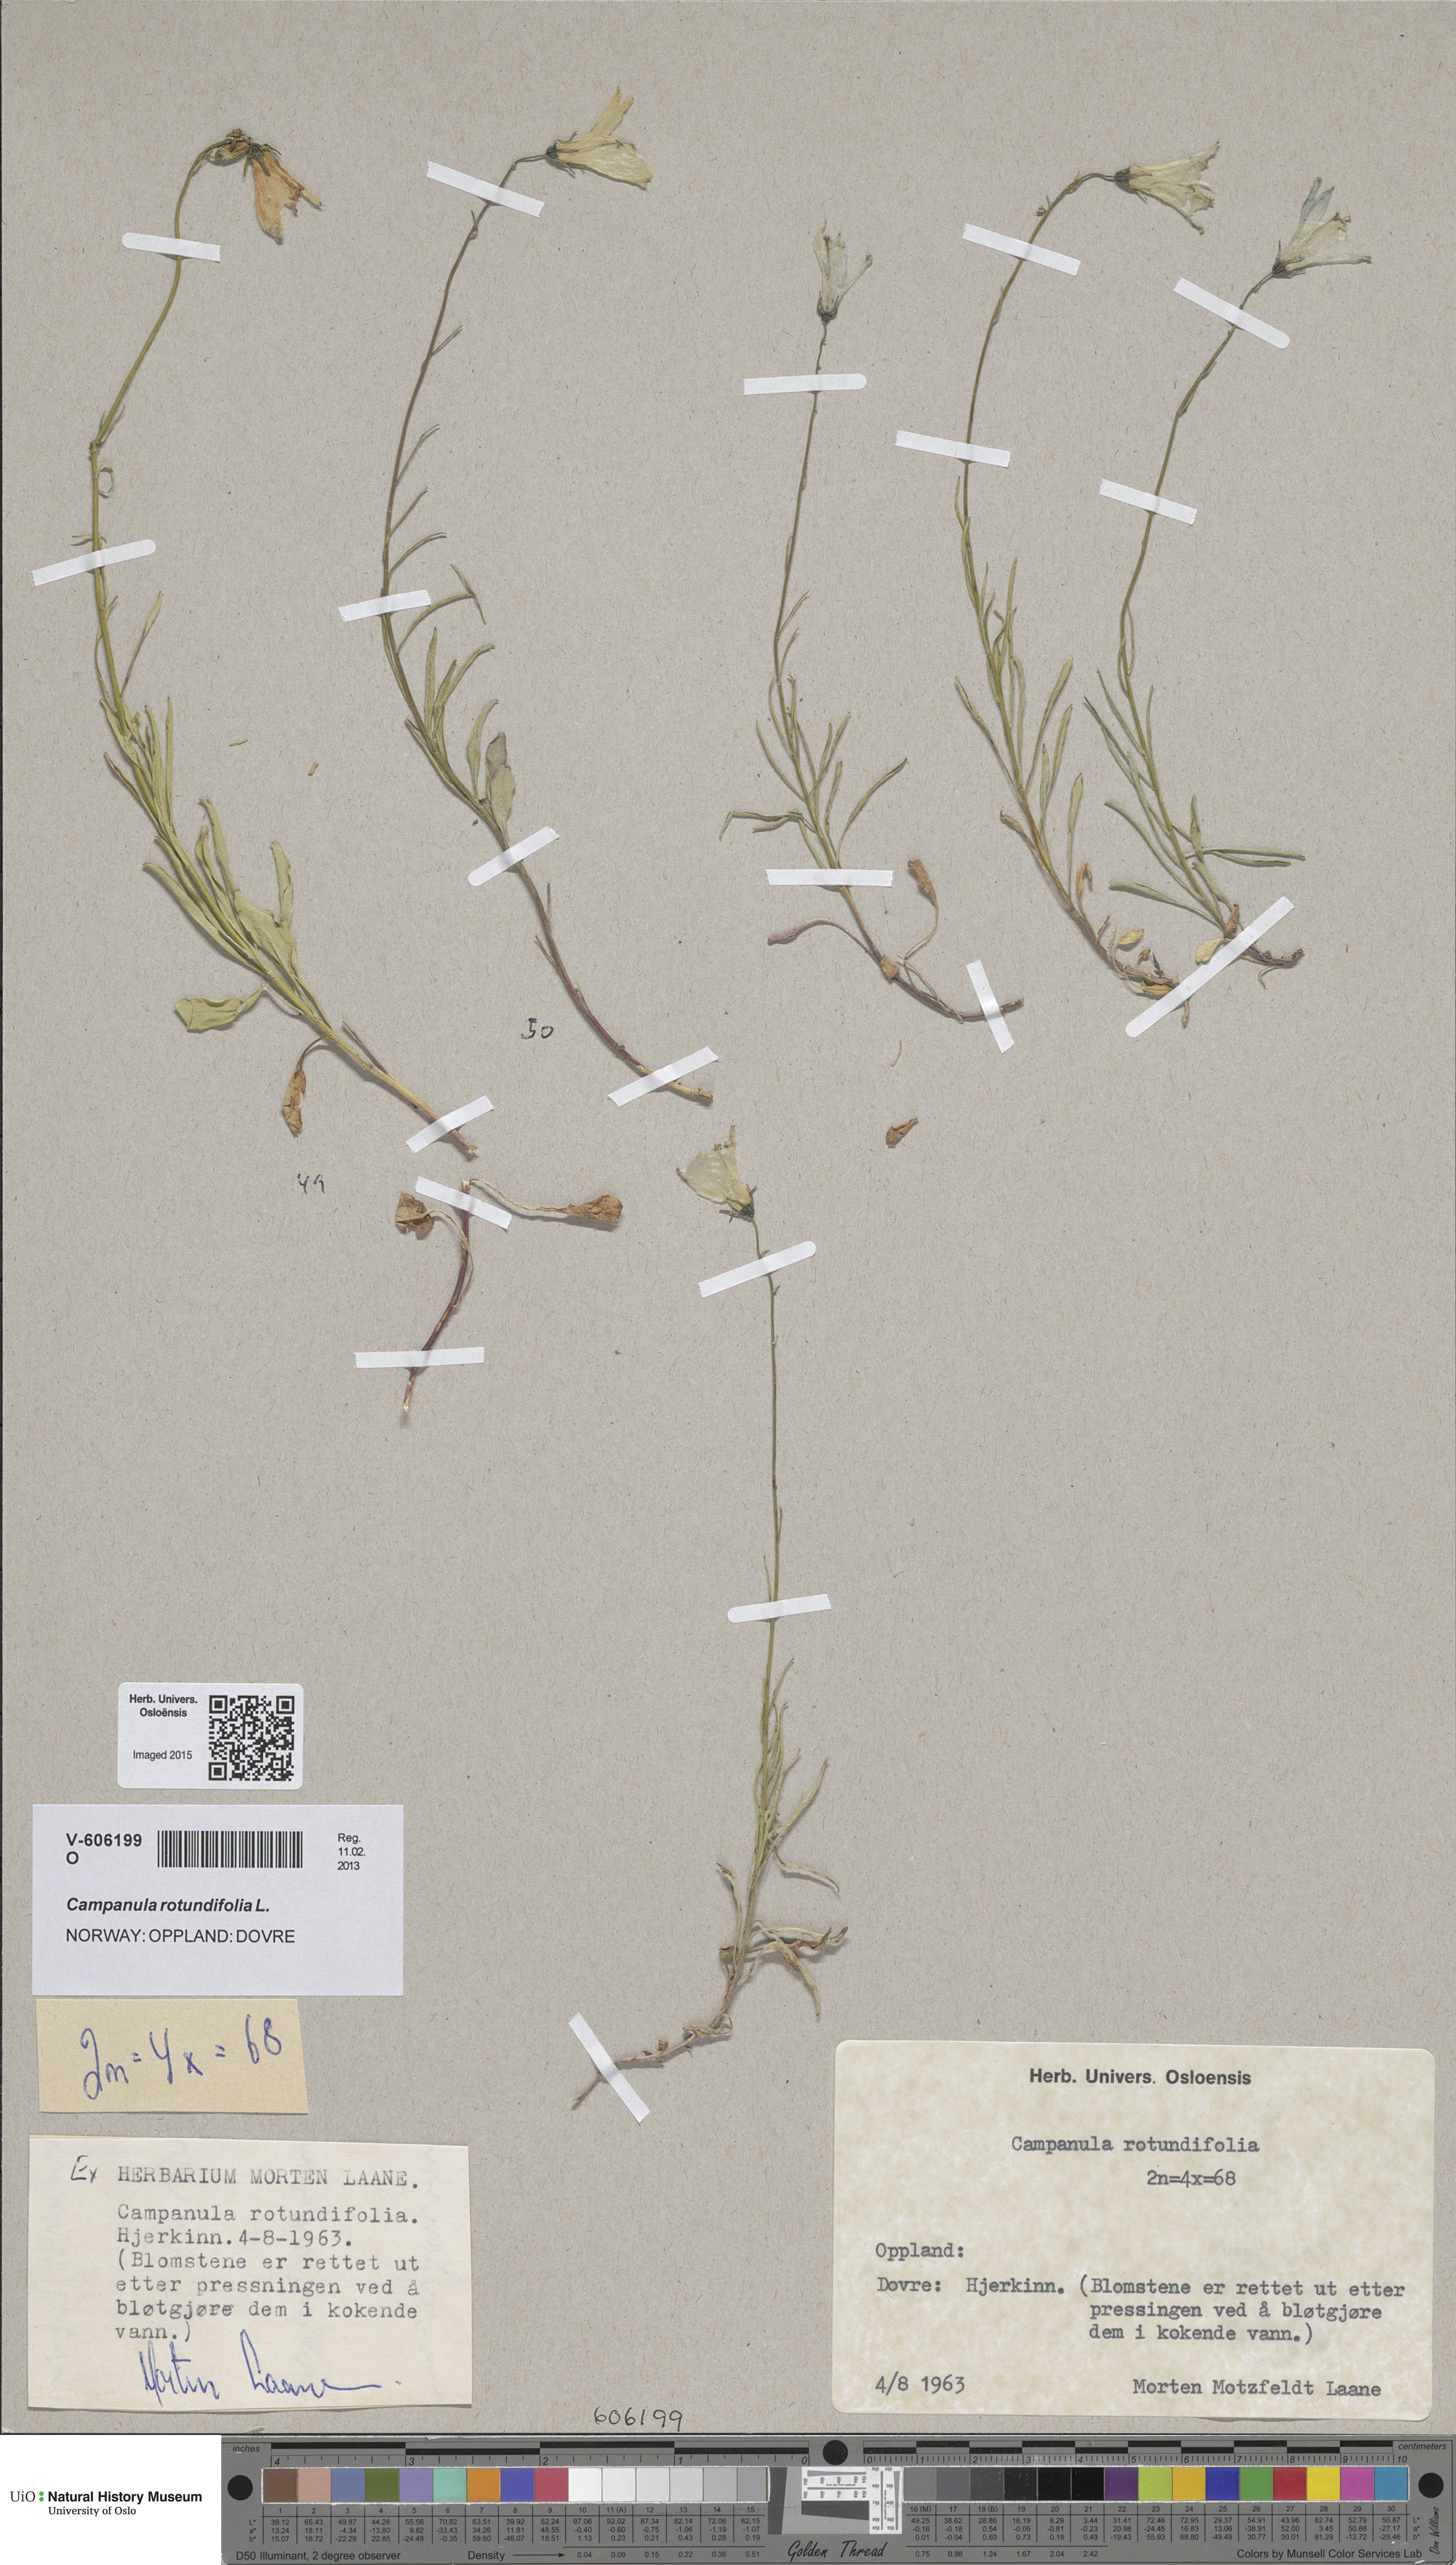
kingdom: Plantae
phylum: Tracheophyta
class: Magnoliopsida
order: Asterales
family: Campanulaceae
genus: Campanula
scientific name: Campanula rotundifolia
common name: Harebell
